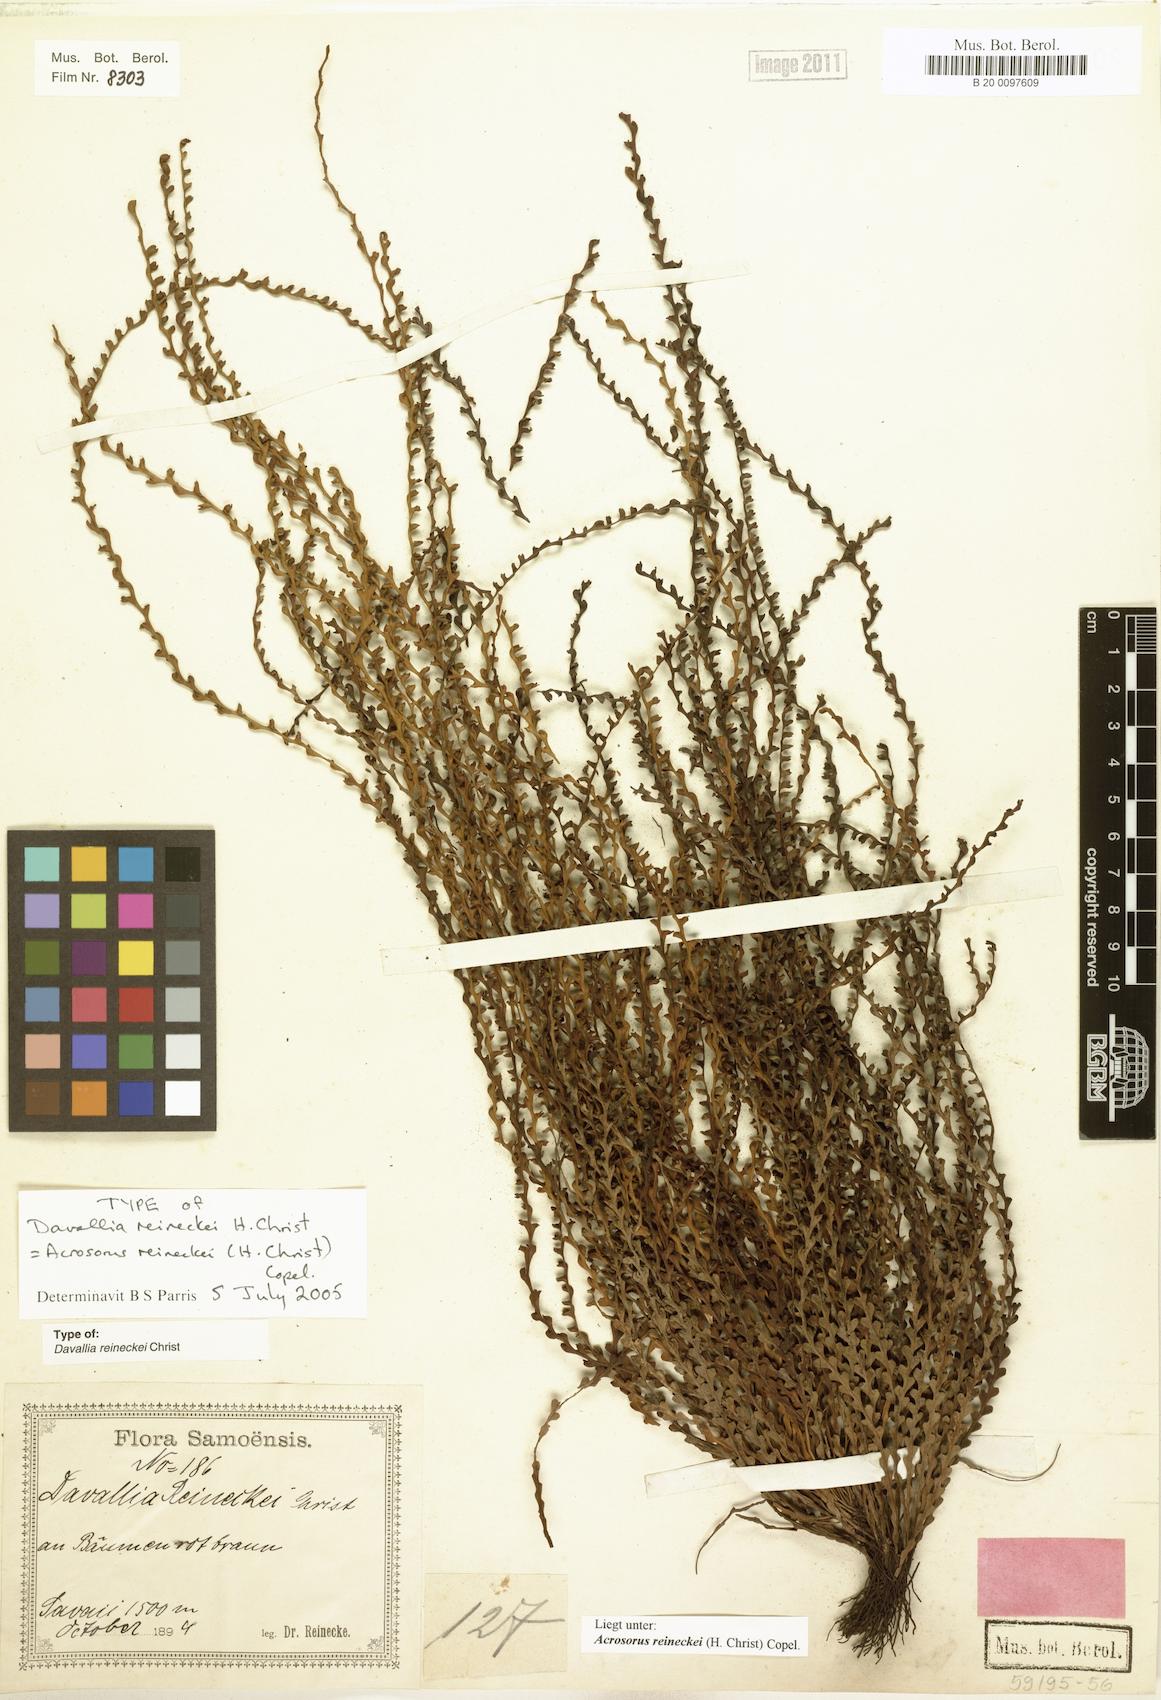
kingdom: Plantae
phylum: Tracheophyta
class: Polypodiopsida
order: Polypodiales
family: Polypodiaceae
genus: Acrosorus
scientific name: Acrosorus reineckei
